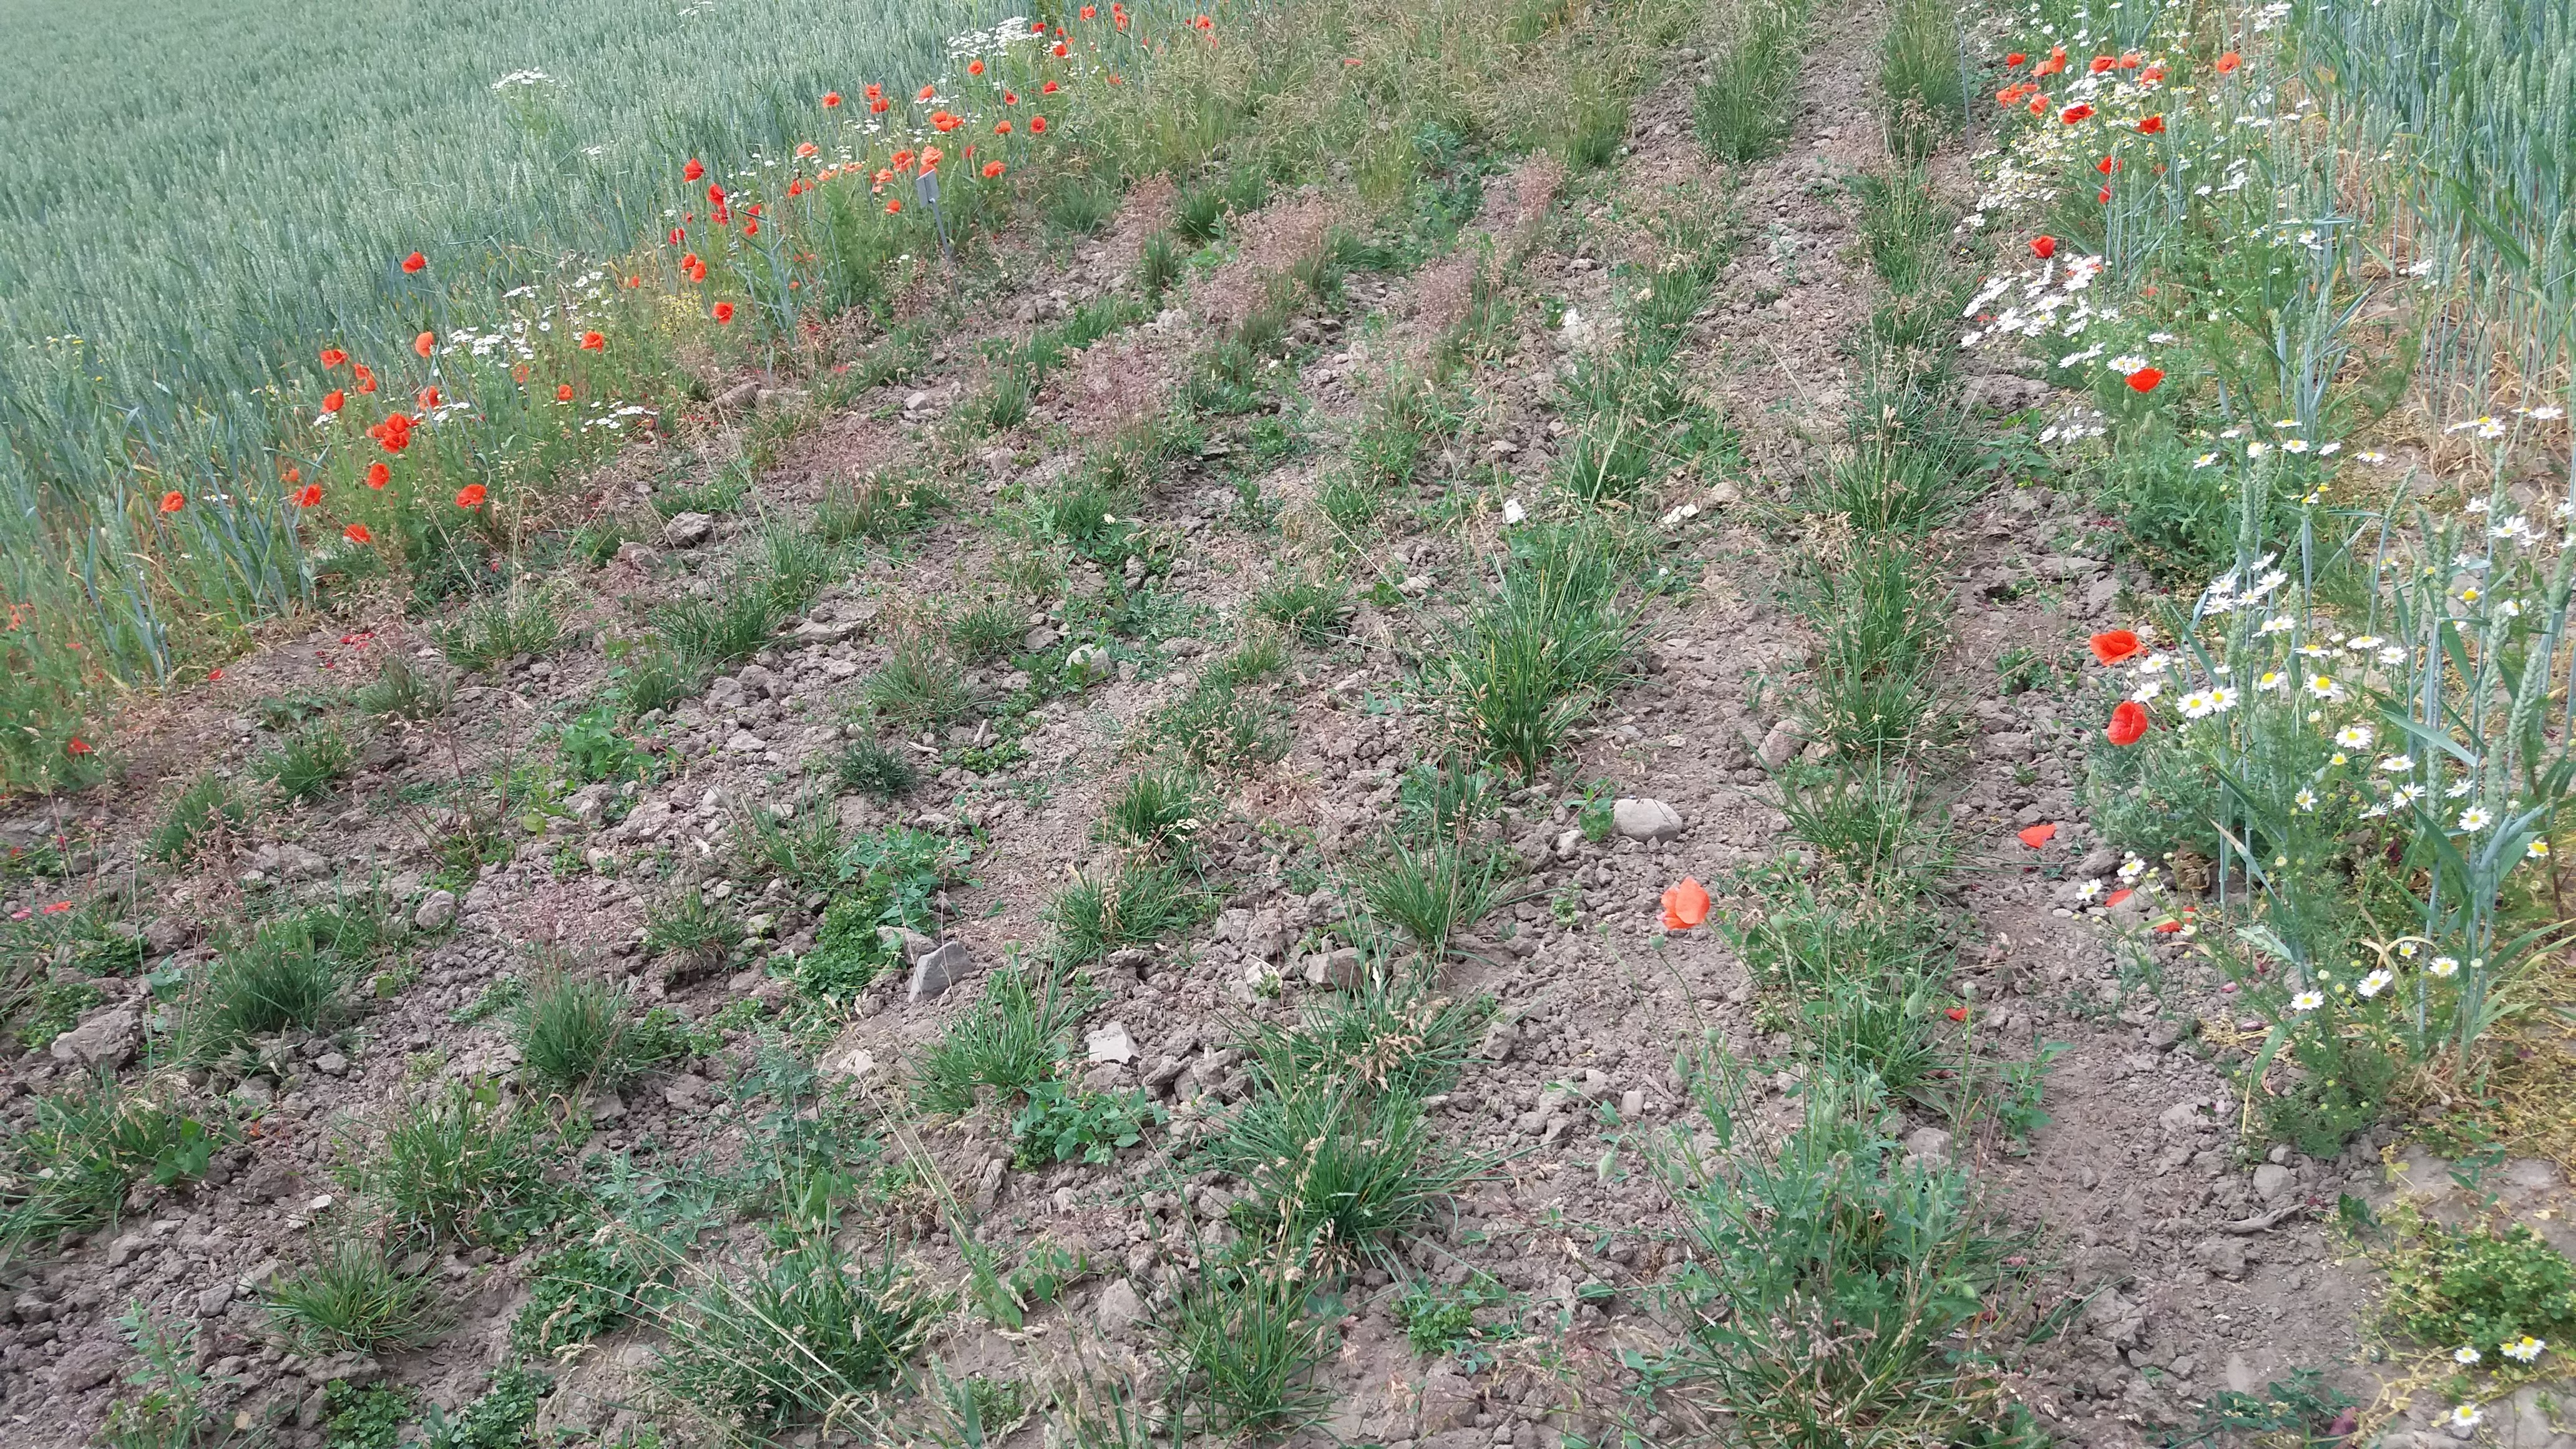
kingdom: Plantae
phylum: Tracheophyta
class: Liliopsida
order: Poales
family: Poaceae
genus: Poa
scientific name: Poa pratensis
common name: Kentucky bluegrass
